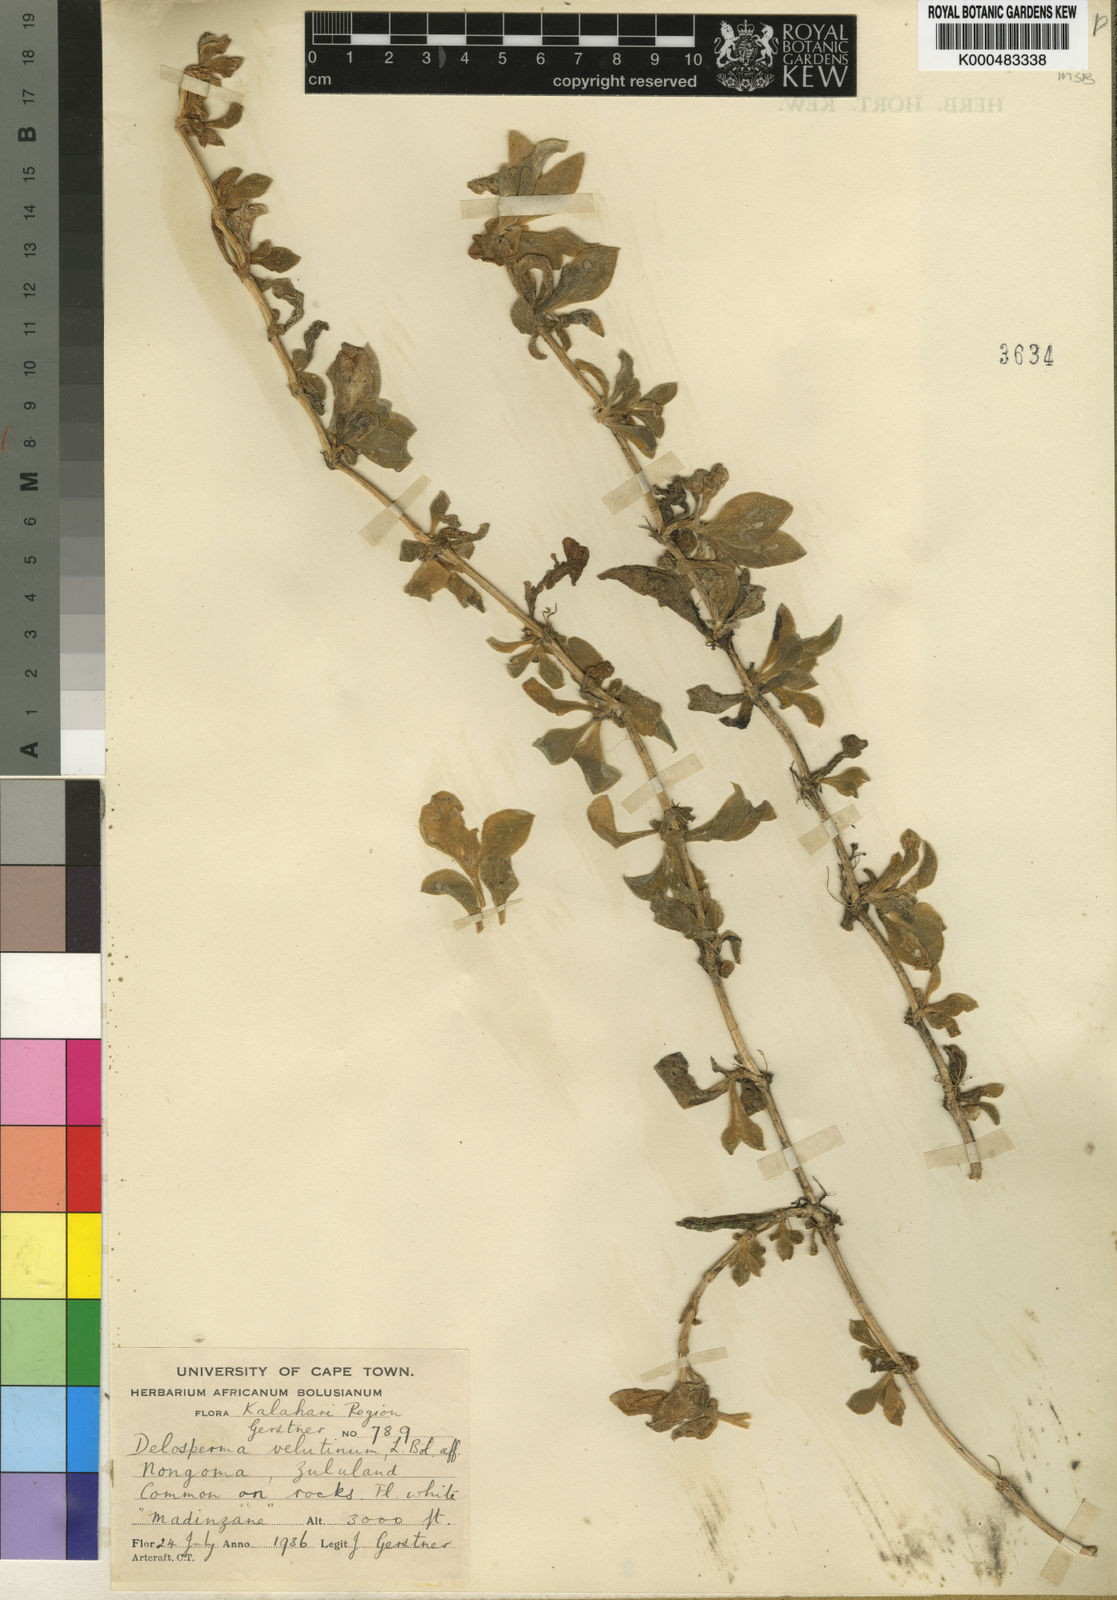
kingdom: Plantae
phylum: Tracheophyta
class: Magnoliopsida
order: Caryophyllales
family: Aizoaceae
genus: Delosperma
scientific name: Delosperma velutinum
